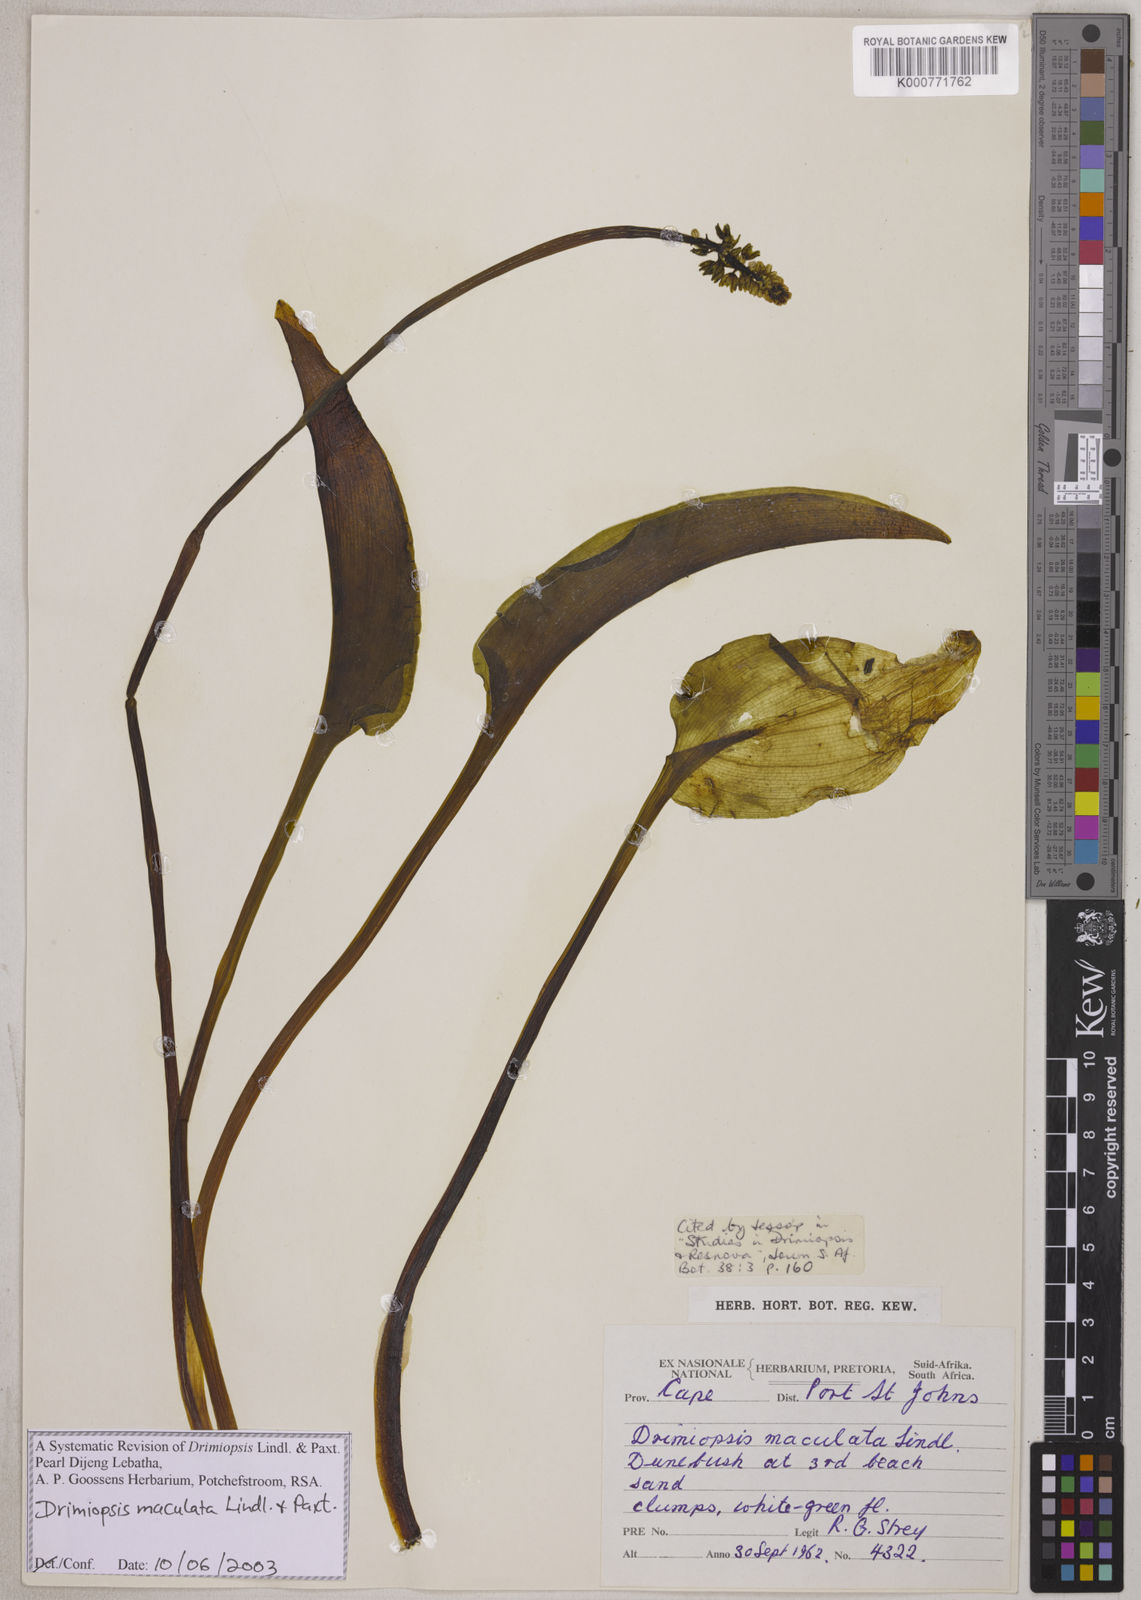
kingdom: Plantae
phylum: Tracheophyta
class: Liliopsida
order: Asparagales
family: Asparagaceae
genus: Drimiopsis
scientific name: Drimiopsis maculata
